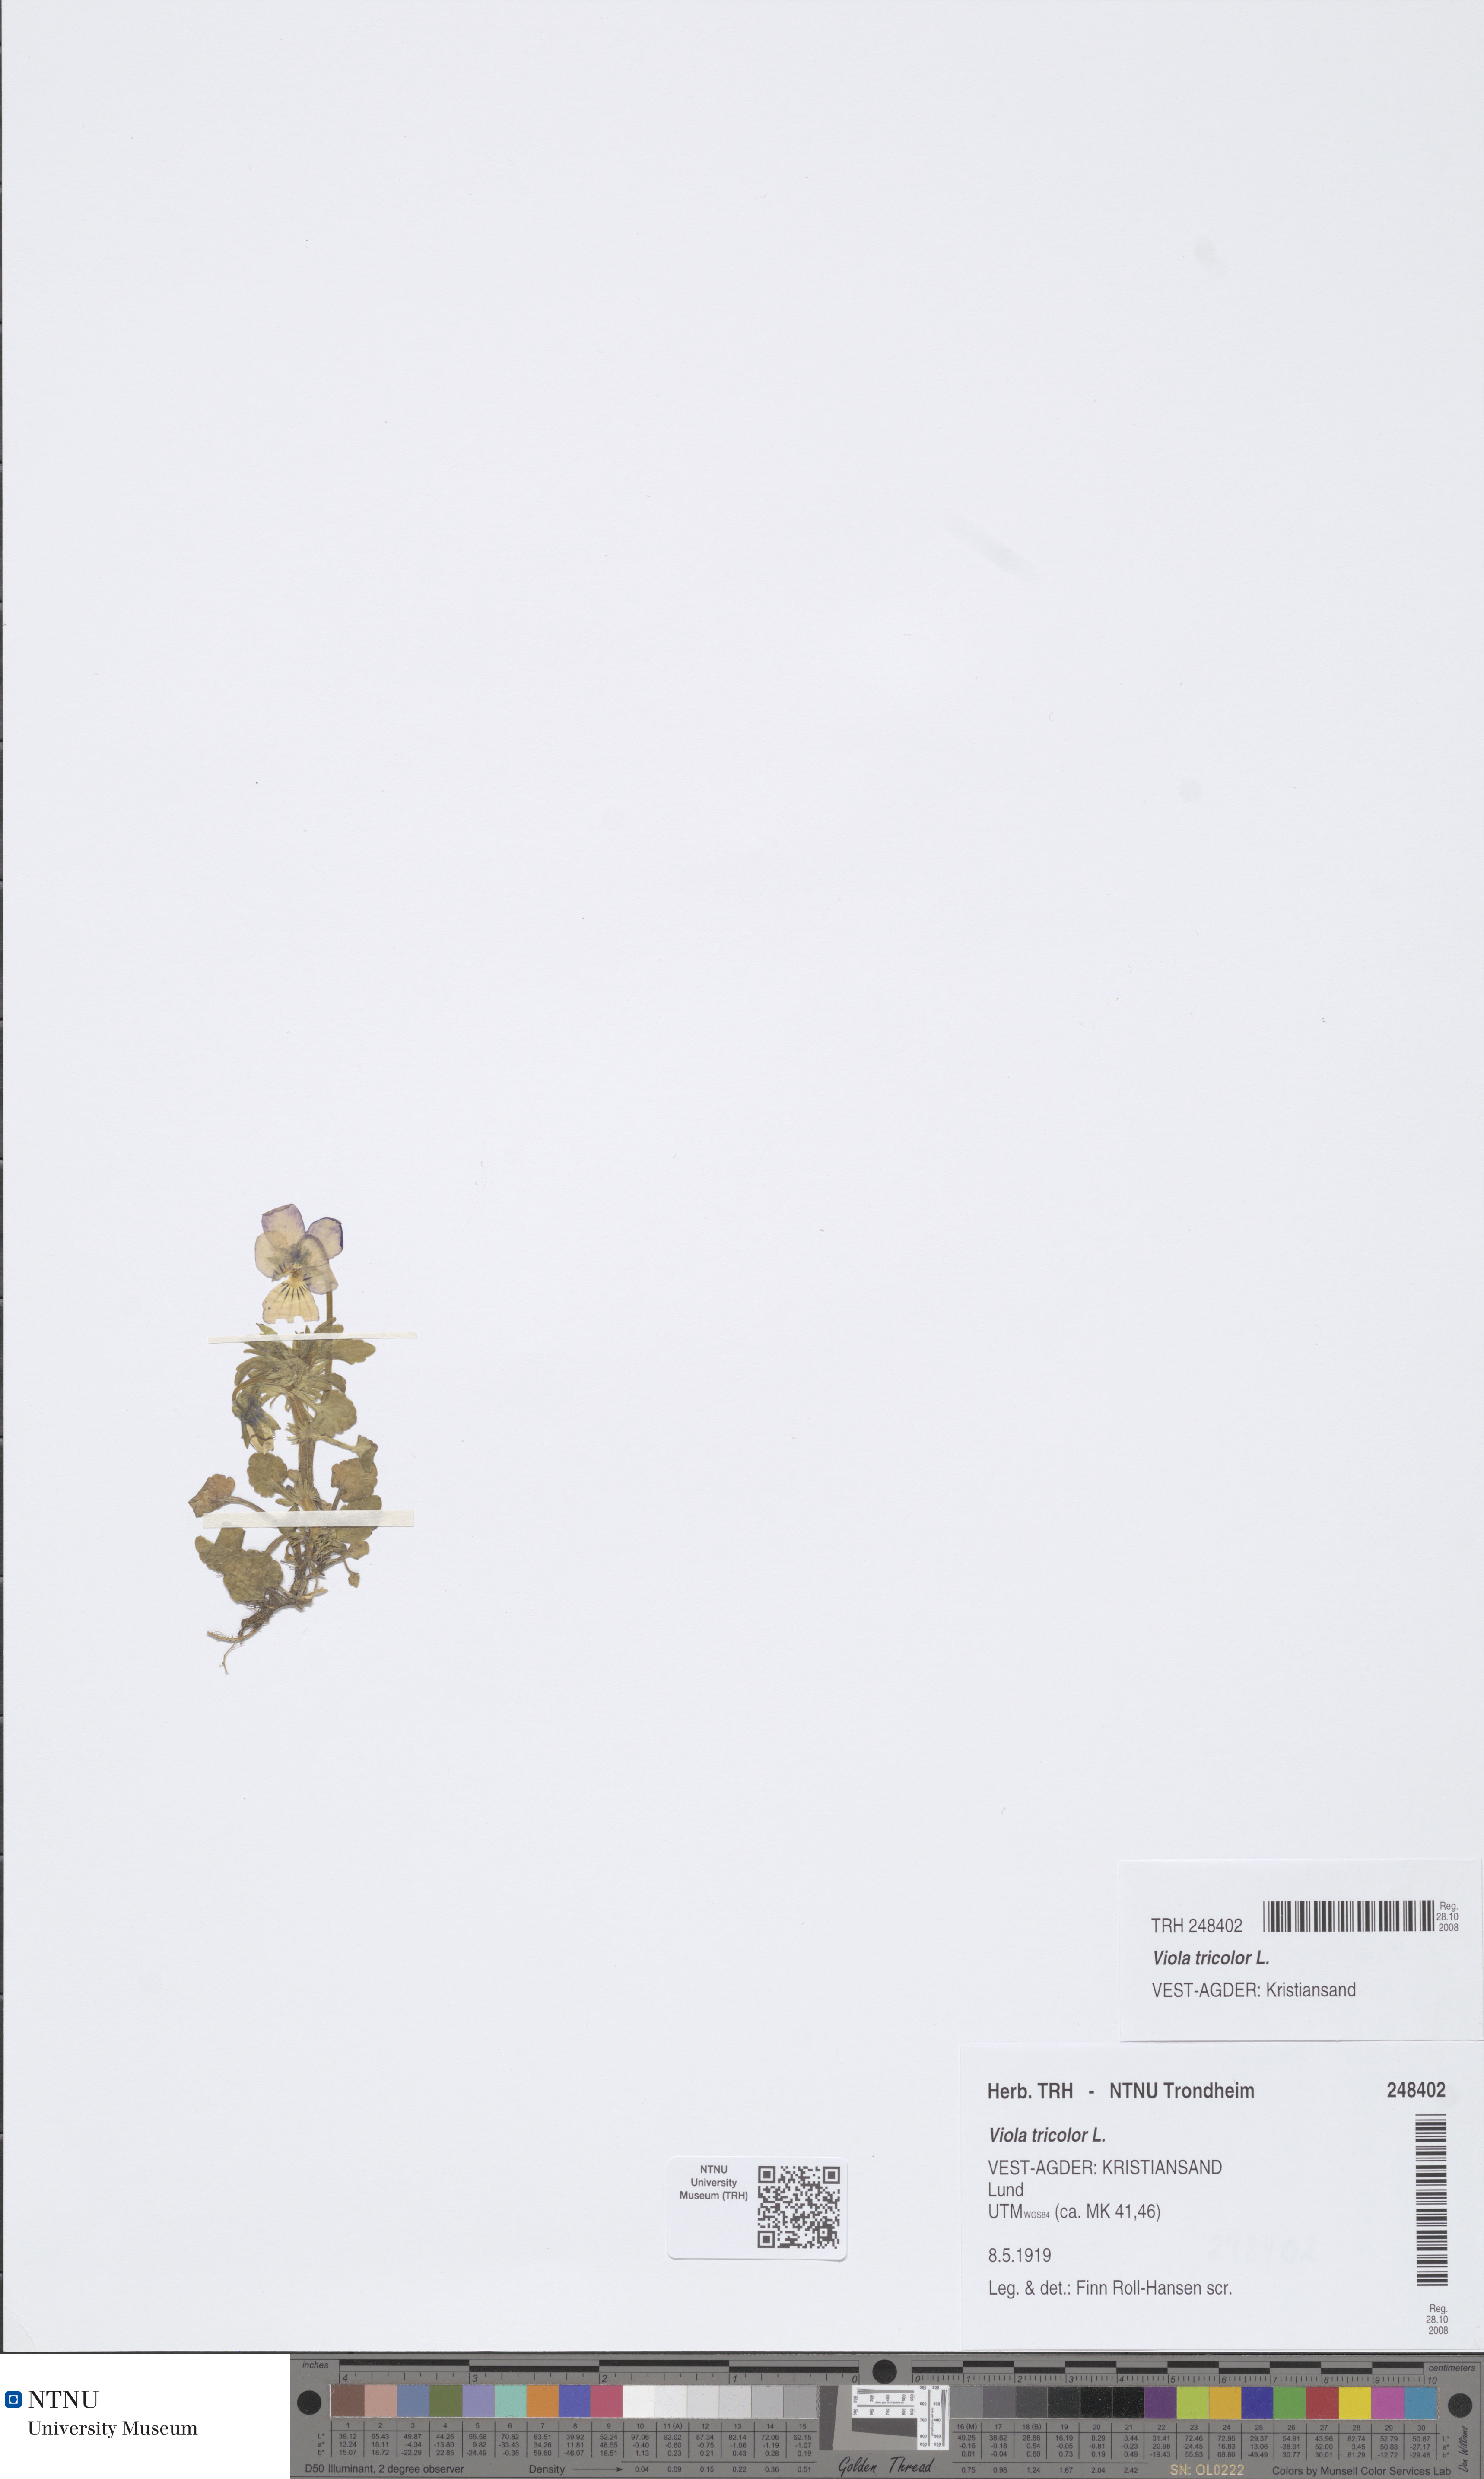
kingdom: Plantae
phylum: Tracheophyta
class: Magnoliopsida
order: Malpighiales
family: Violaceae
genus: Viola
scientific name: Viola tricolor
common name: Pansy
